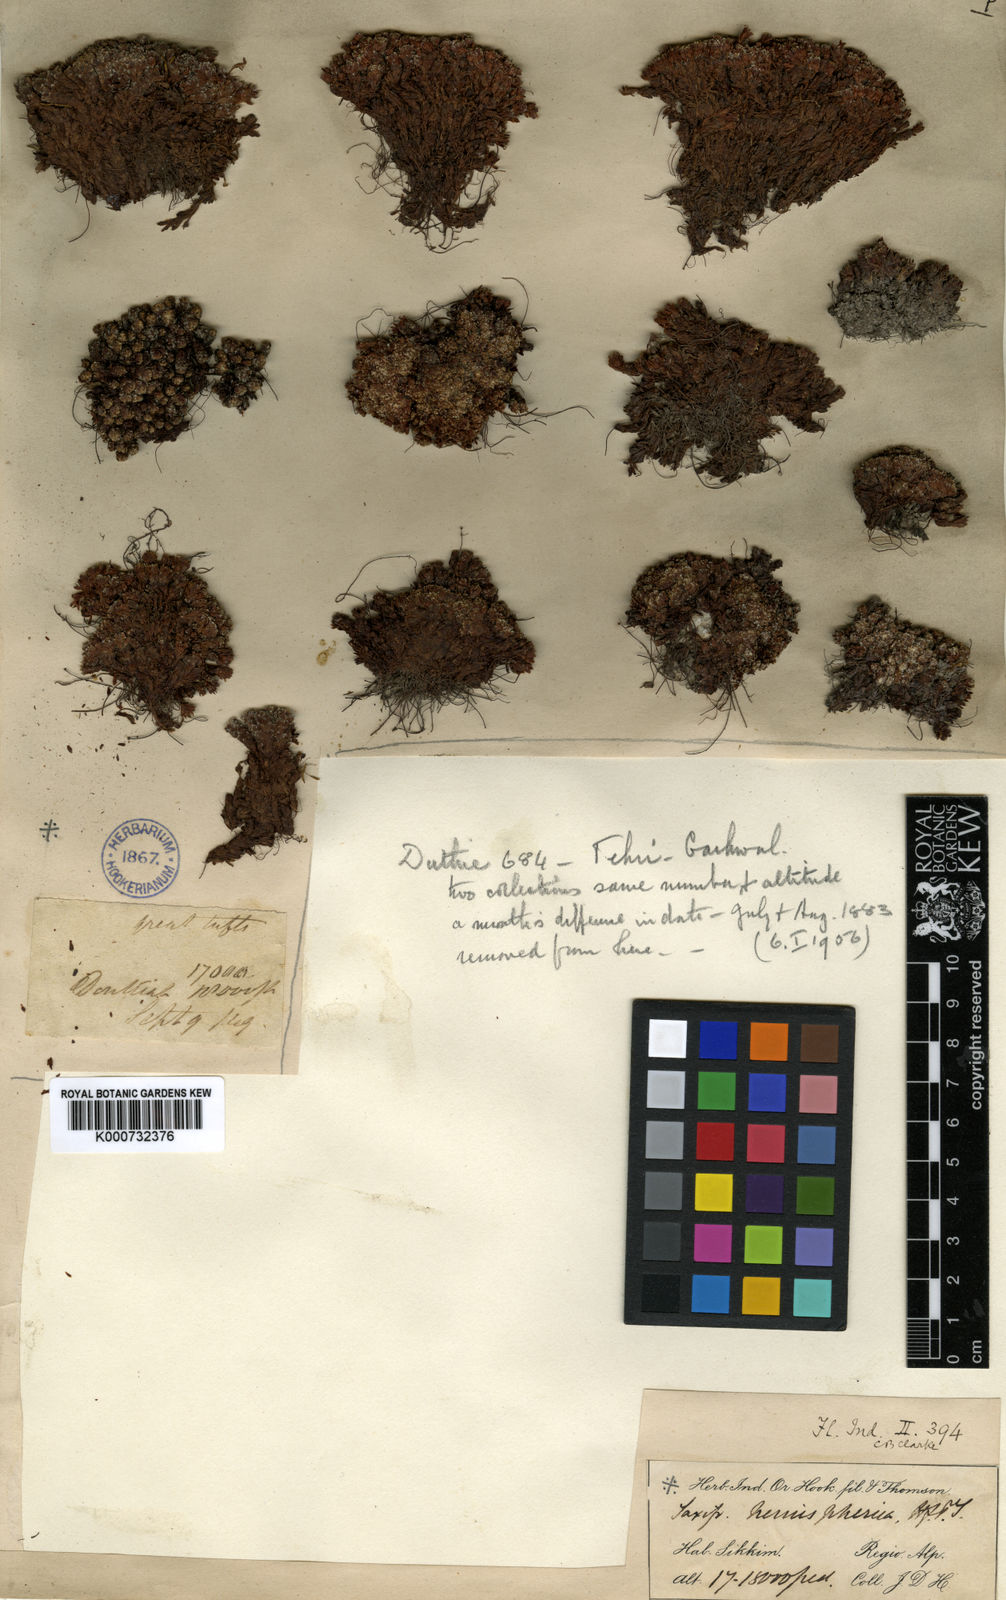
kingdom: Plantae
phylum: Tracheophyta
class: Magnoliopsida
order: Saxifragales
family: Saxifragaceae
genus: Saxifraga
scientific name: Saxifraga hemisphaerica
